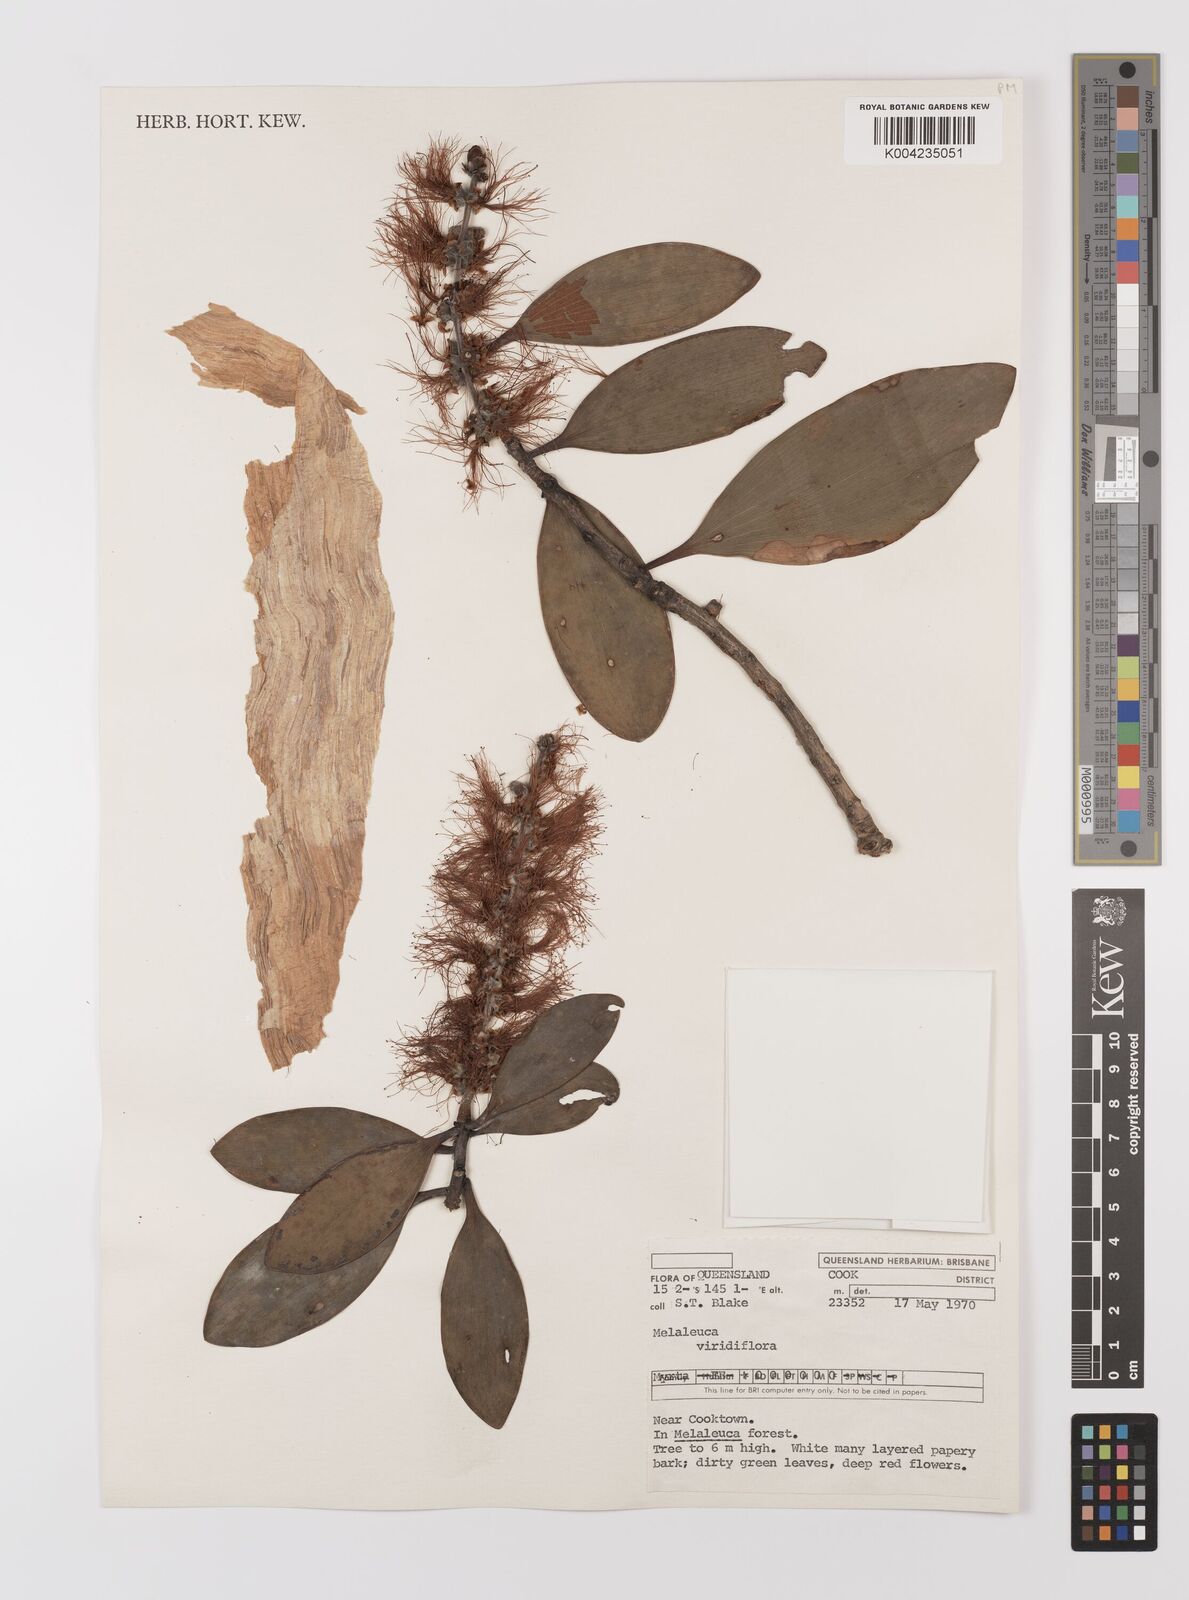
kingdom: Plantae
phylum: Tracheophyta
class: Magnoliopsida
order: Myrtales
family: Myrtaceae
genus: Melaleuca
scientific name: Melaleuca viridiflora
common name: Brown-leaved paperbark
